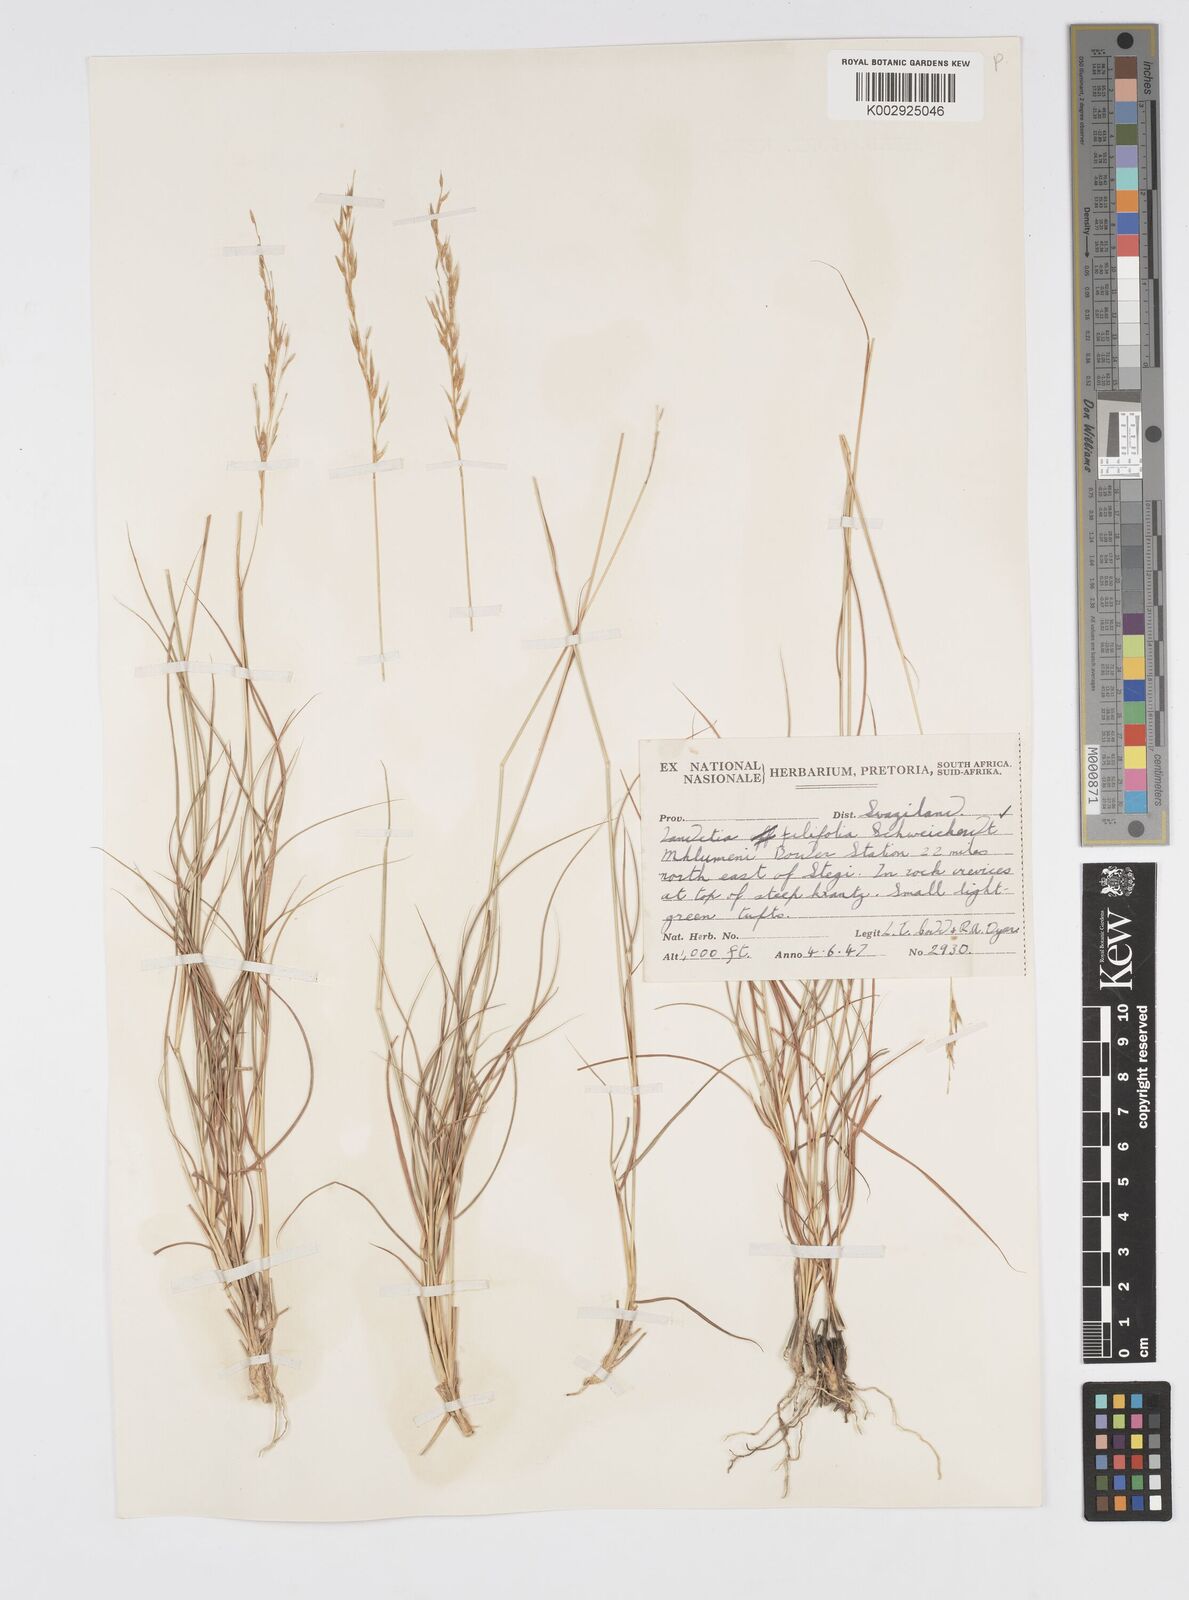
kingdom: Plantae
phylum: Tracheophyta
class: Liliopsida
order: Poales
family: Poaceae
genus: Loudetia
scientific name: Loudetia filifolia
